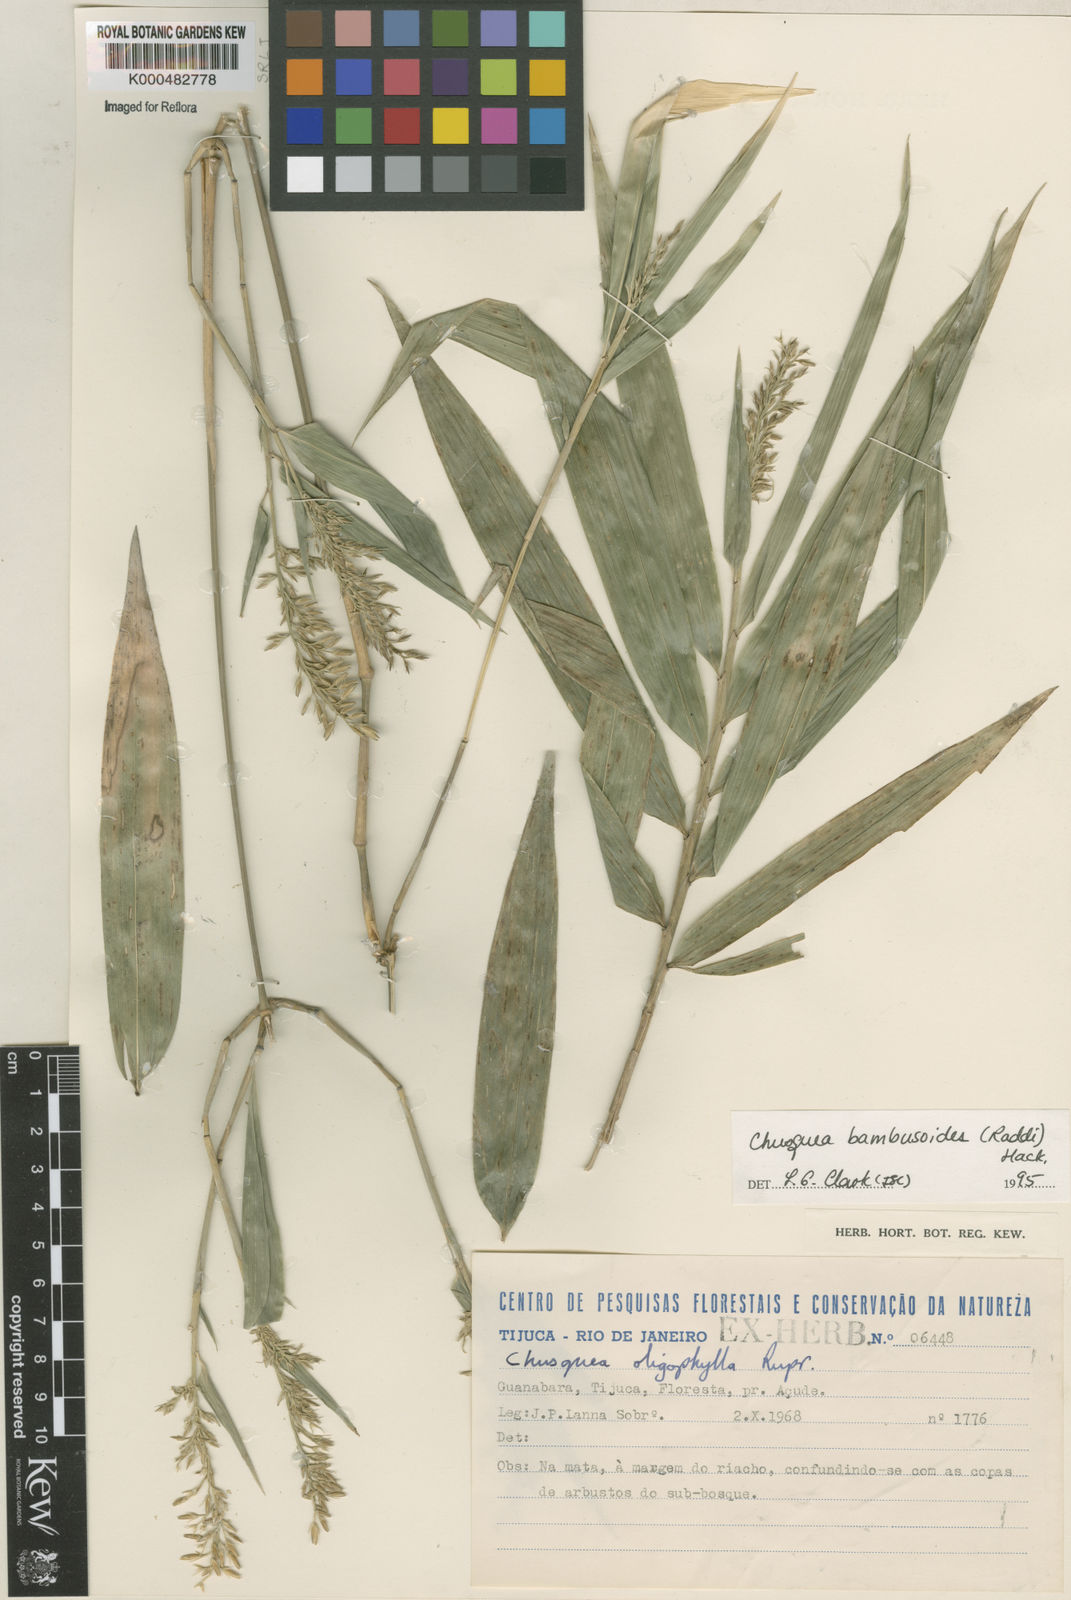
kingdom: Plantae
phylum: Tracheophyta
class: Liliopsida
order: Poales
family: Poaceae
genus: Chusquea
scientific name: Chusquea bambusoides
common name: Brazil scrambling bamboo
